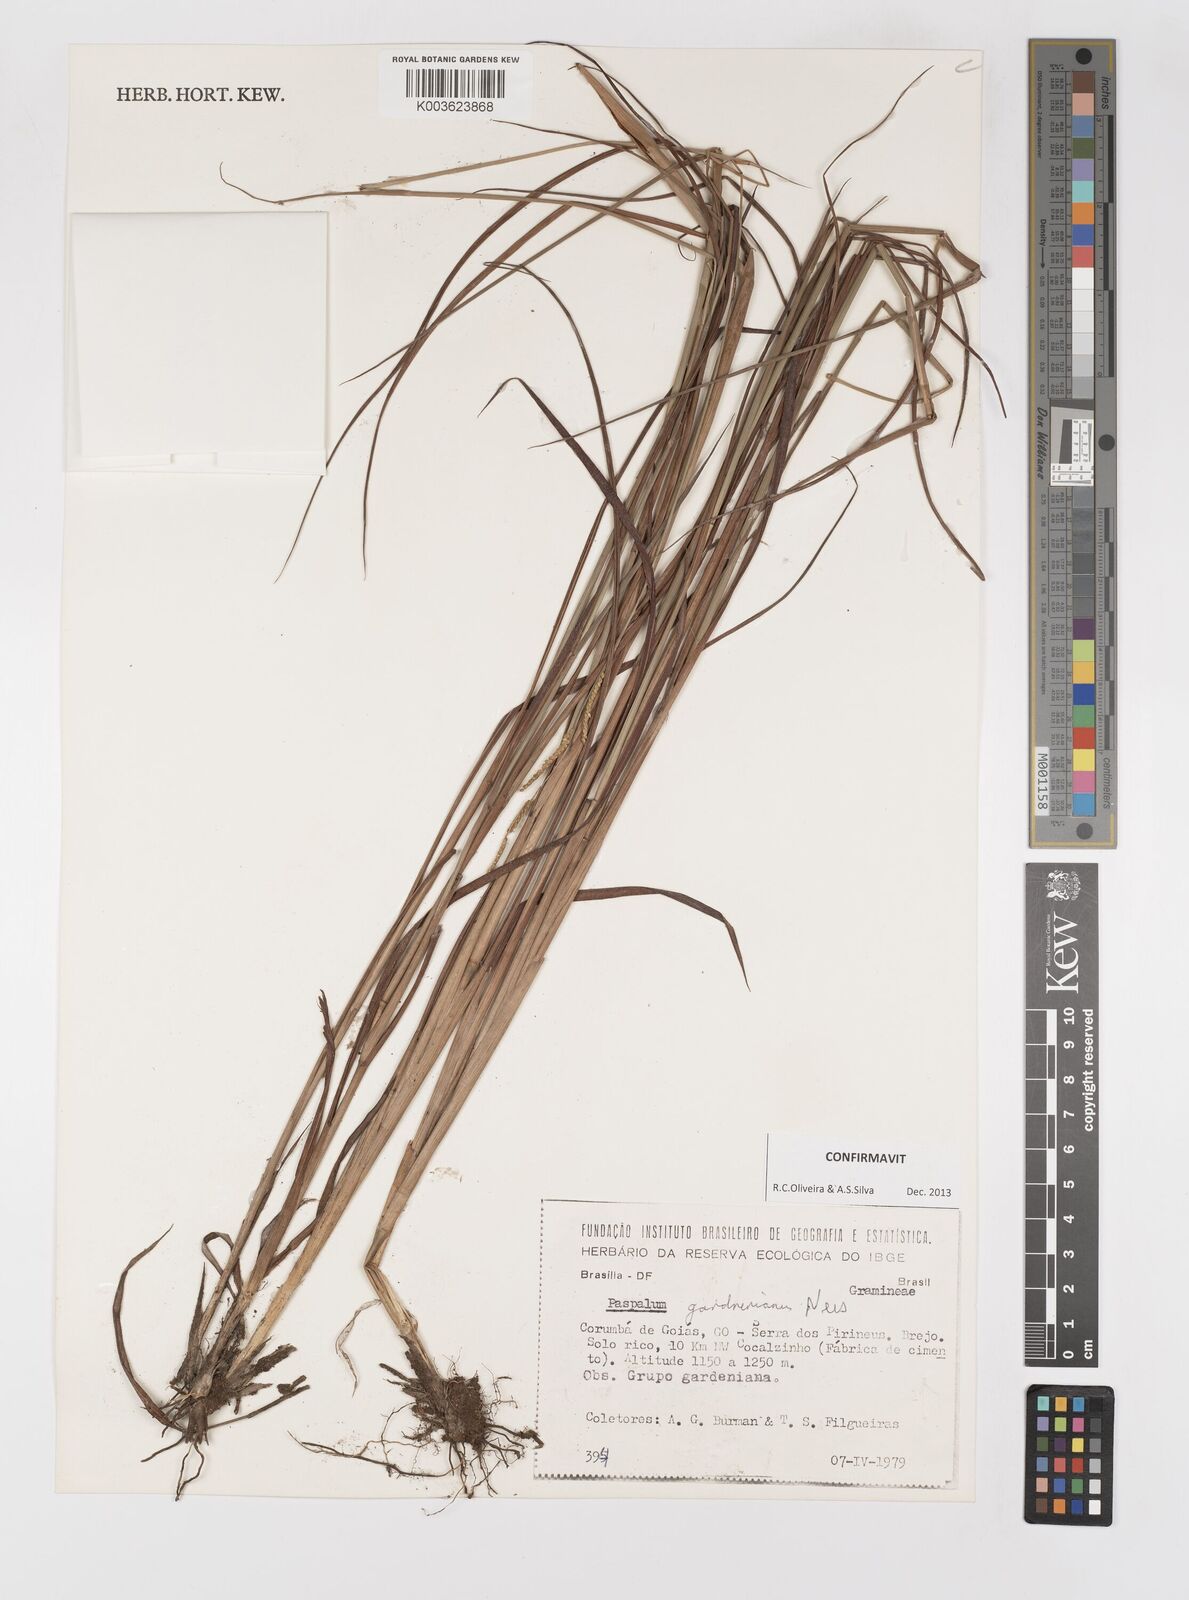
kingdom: Plantae
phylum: Tracheophyta
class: Liliopsida
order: Poales
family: Poaceae
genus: Paspalum
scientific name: Paspalum gardnerianum
